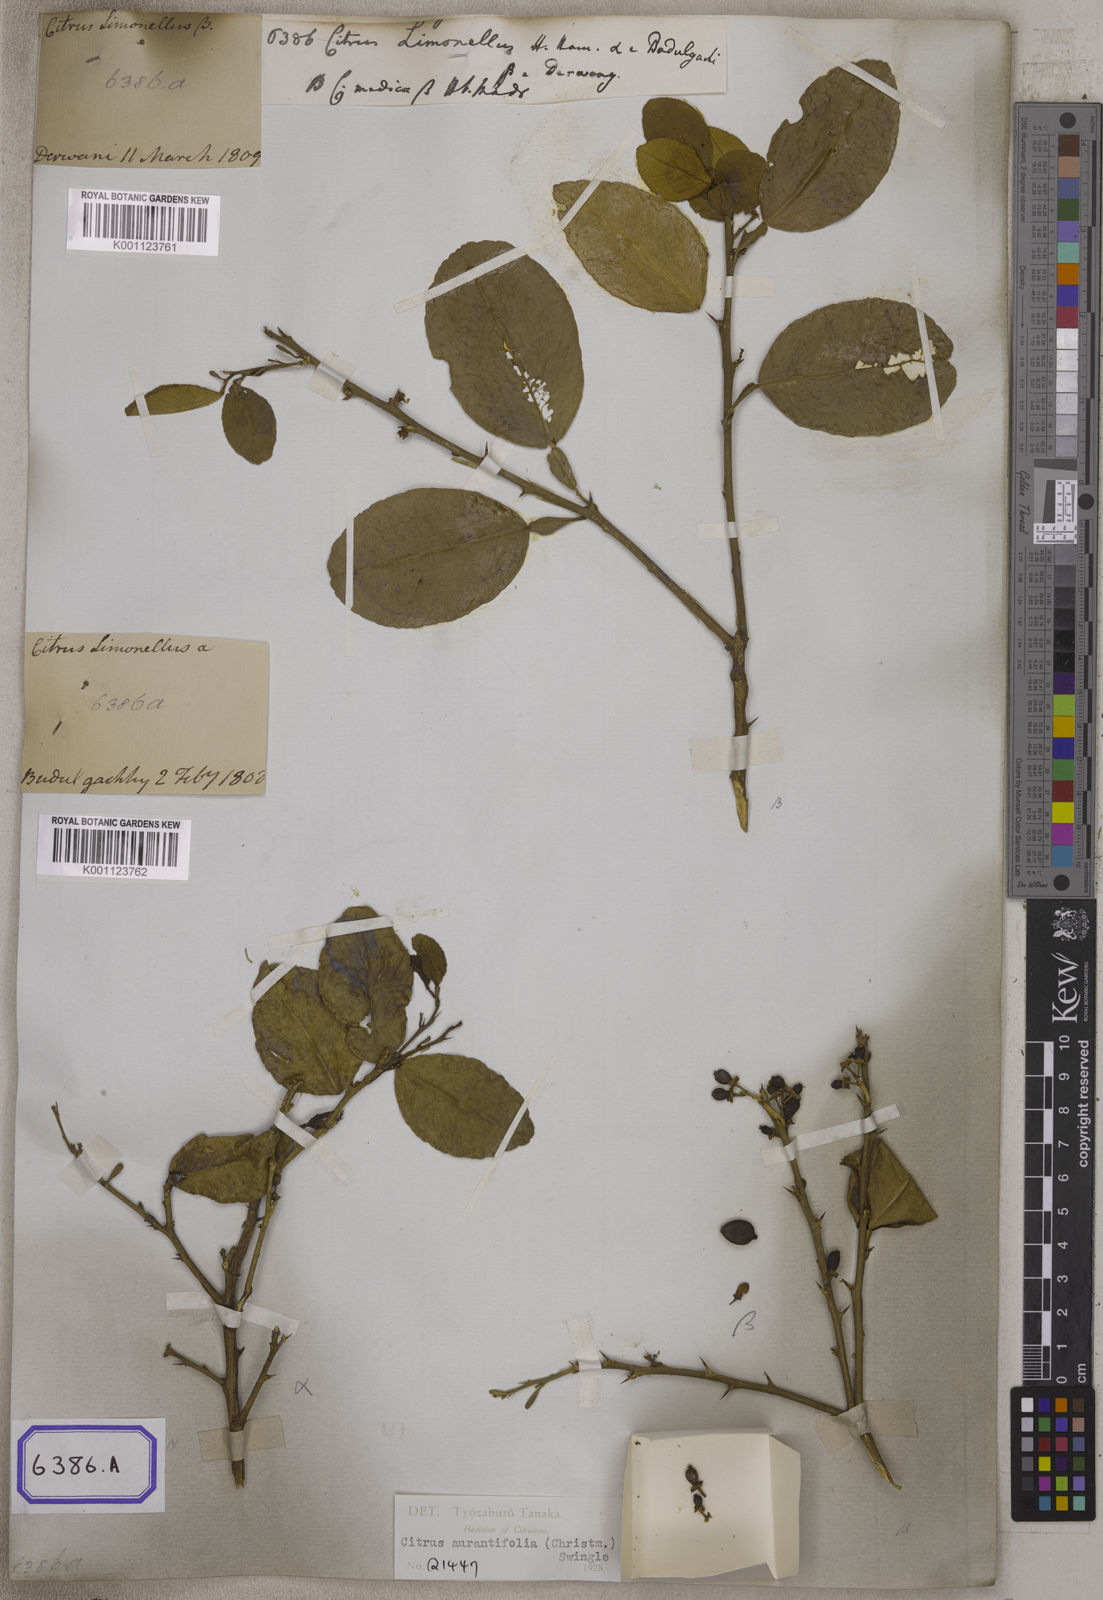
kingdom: Plantae
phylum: Tracheophyta
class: Magnoliopsida
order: Sapindales
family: Rutaceae
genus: Citrus
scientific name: Citrus
